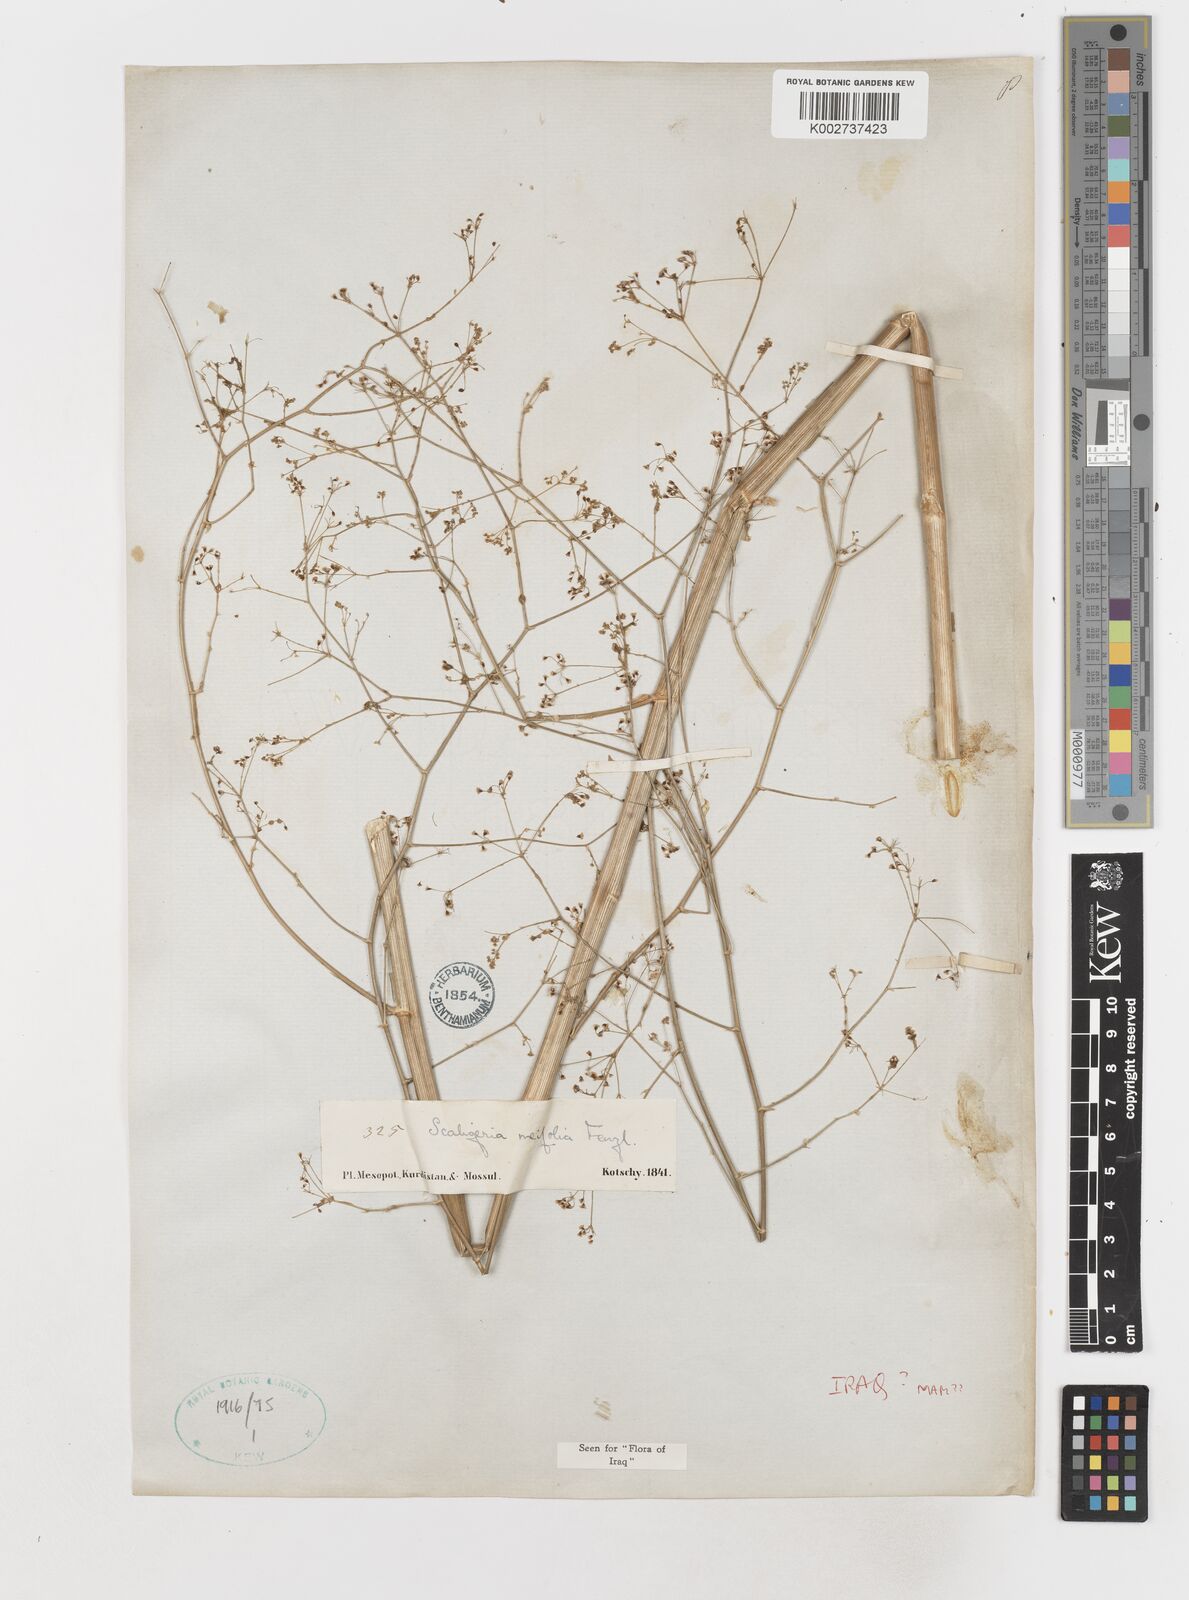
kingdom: Plantae
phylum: Tracheophyta
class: Magnoliopsida
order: Apiales
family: Apiaceae
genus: Elaeosticta
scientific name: Elaeosticta meifolia
